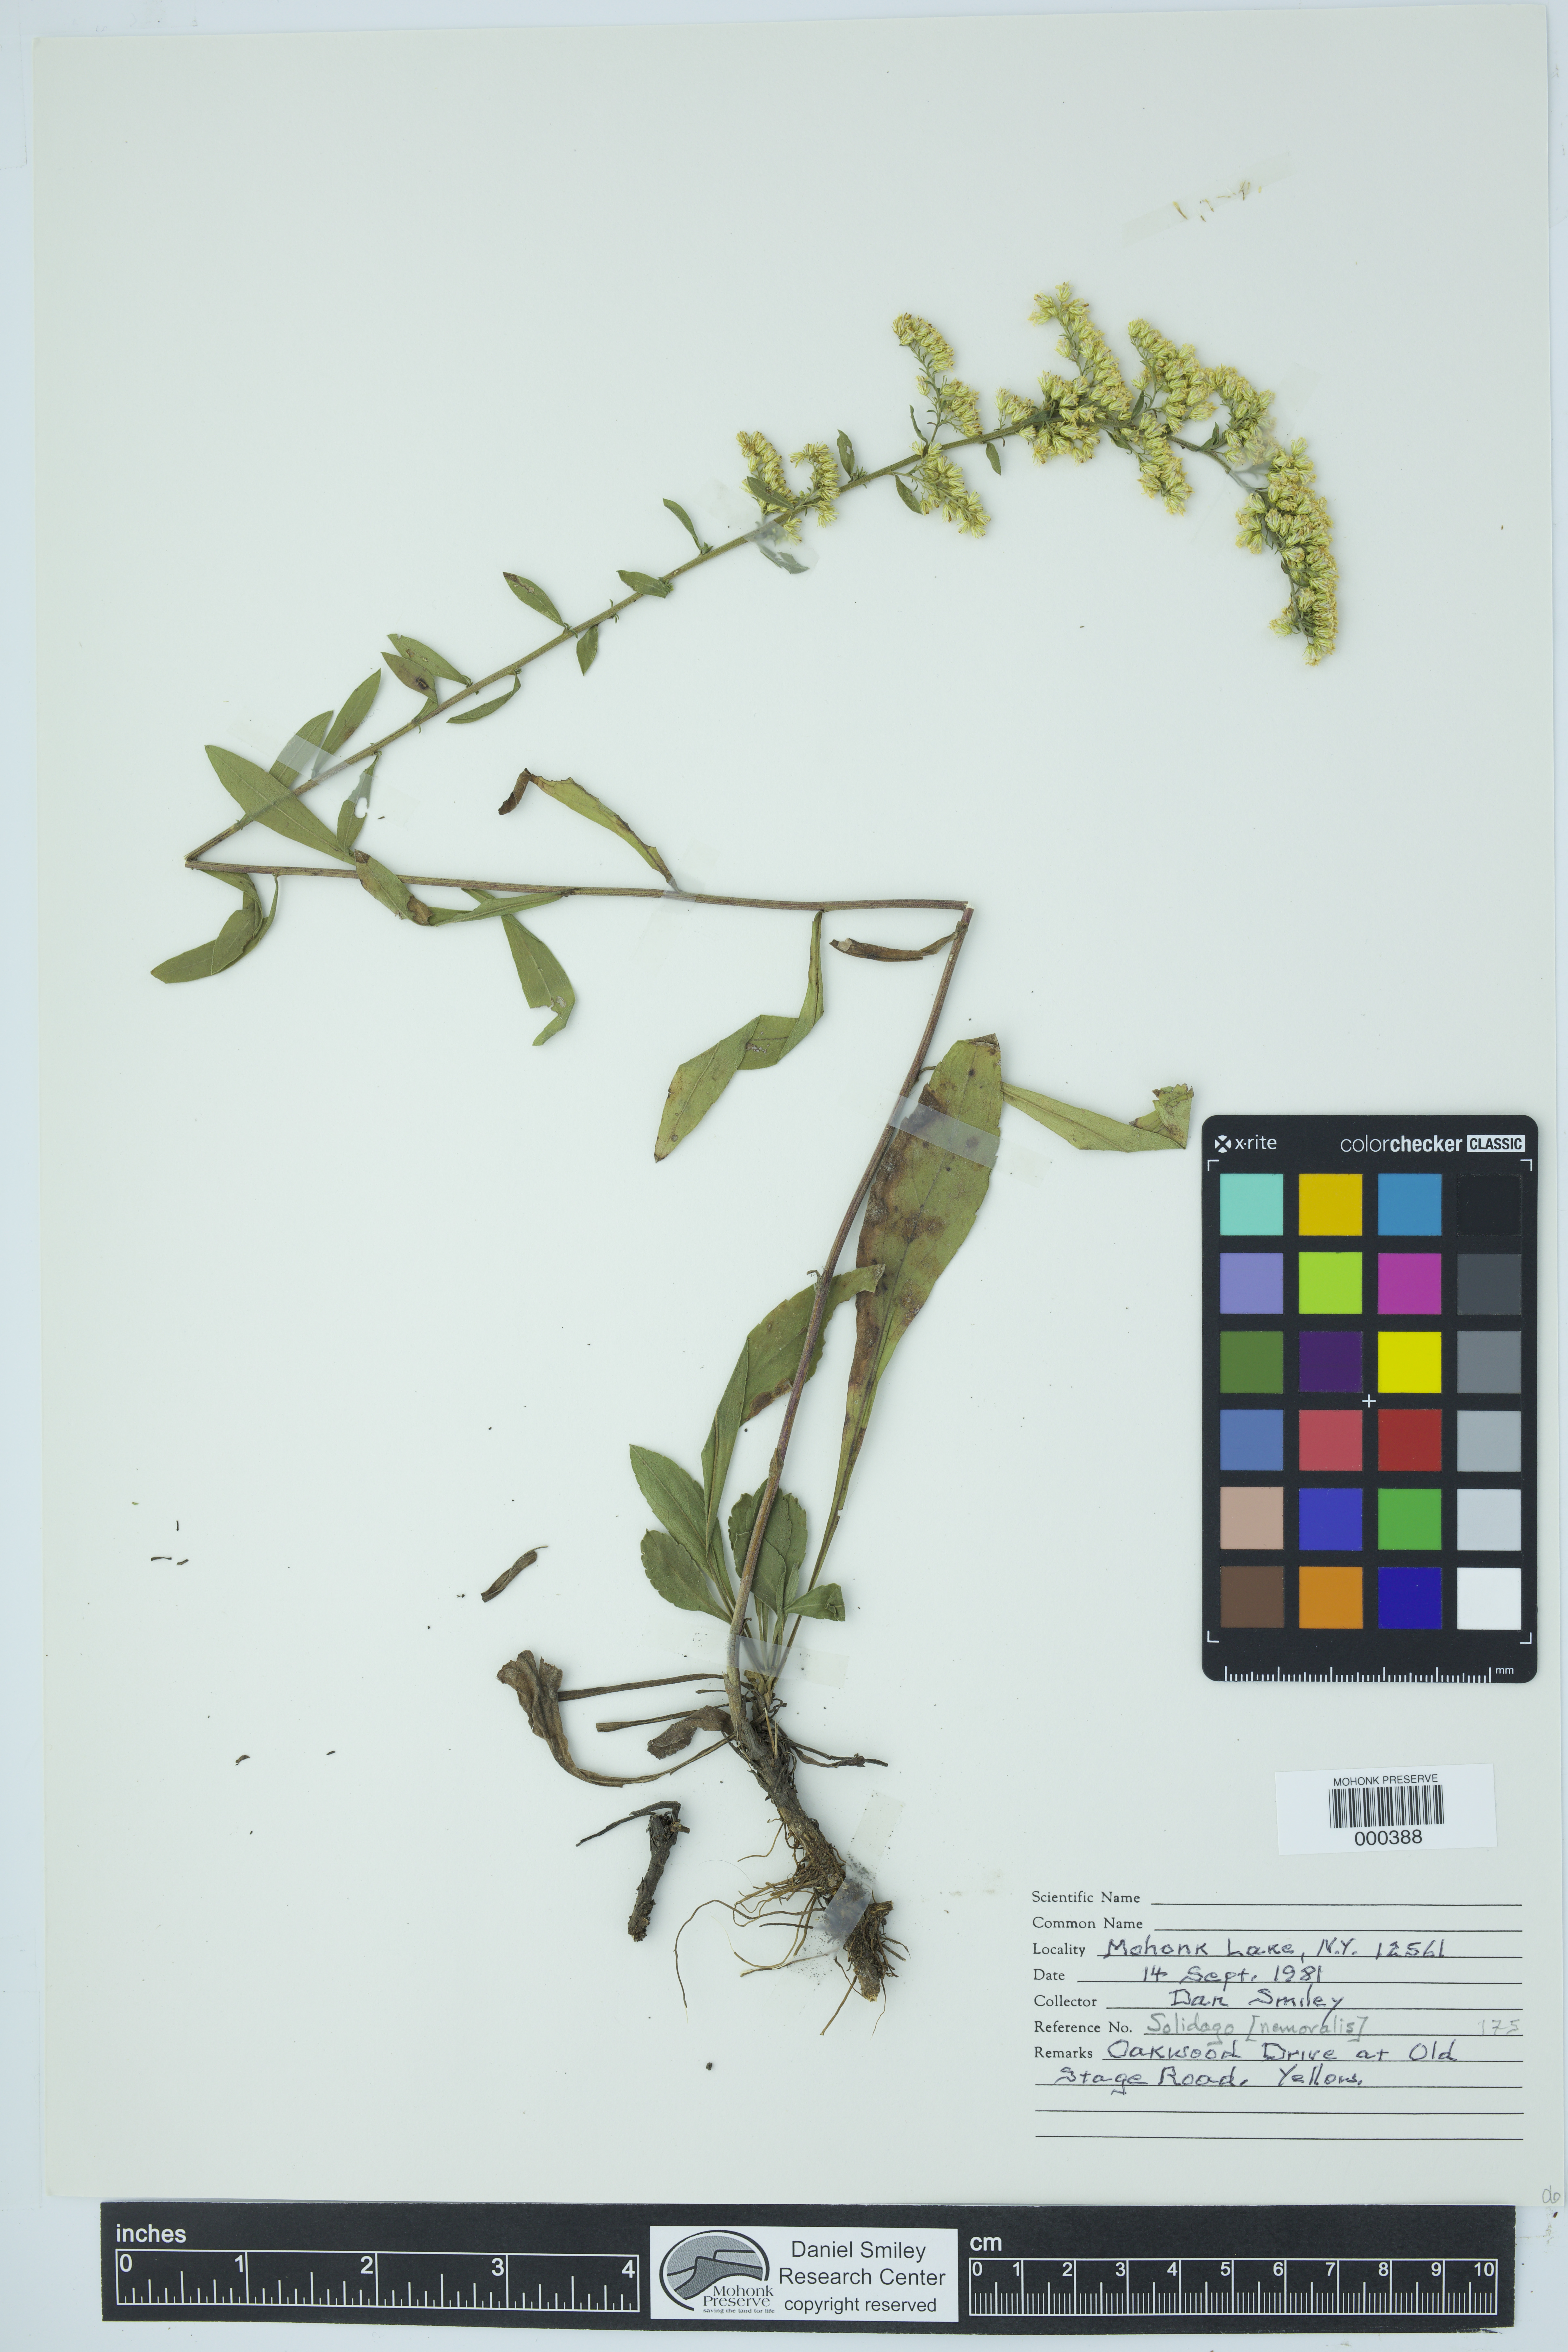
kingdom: Plantae
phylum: Tracheophyta
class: Magnoliopsida
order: Asterales
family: Asteraceae
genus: Solidago
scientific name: Solidago nemoralis
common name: Grey goldenrod
